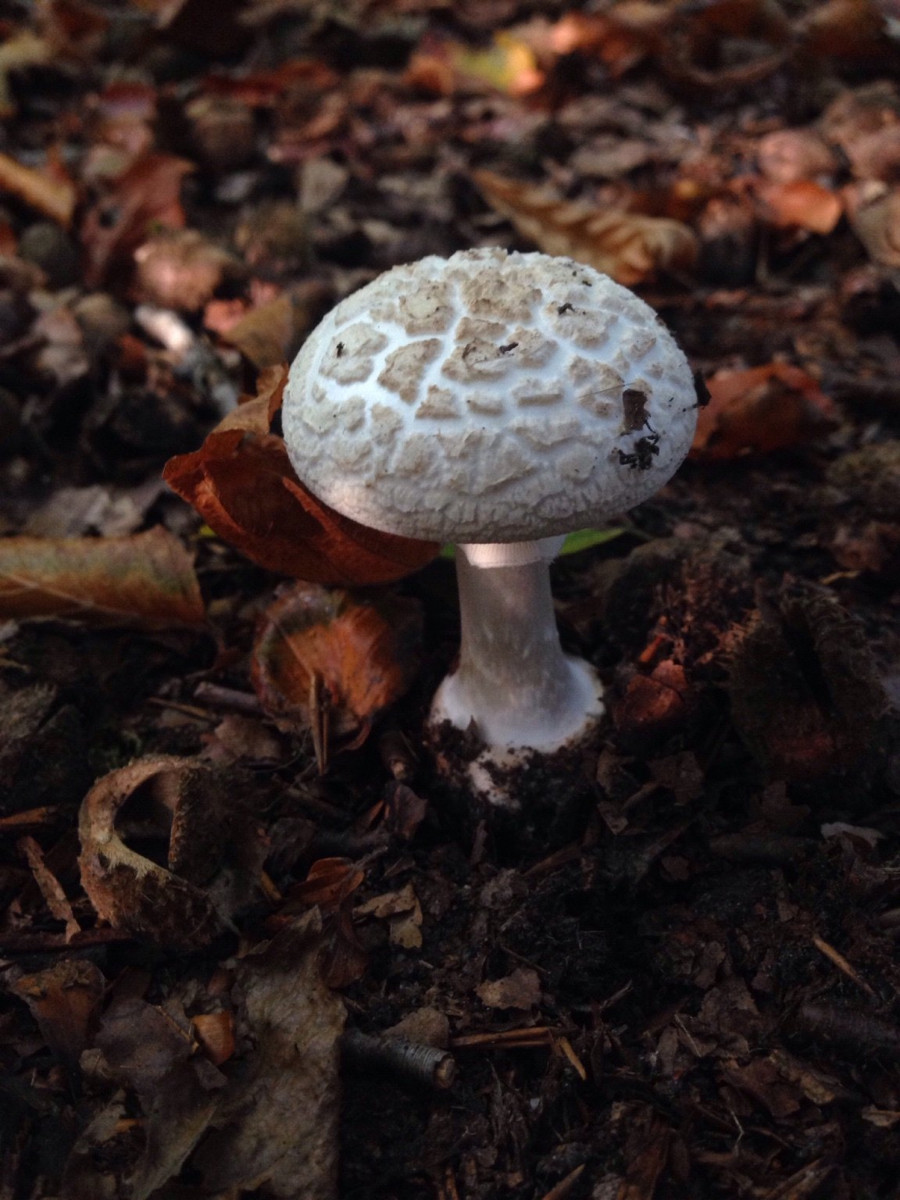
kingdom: Fungi
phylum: Basidiomycota
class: Agaricomycetes
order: Agaricales
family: Amanitaceae
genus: Amanita
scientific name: Amanita citrina
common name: False death-cap
